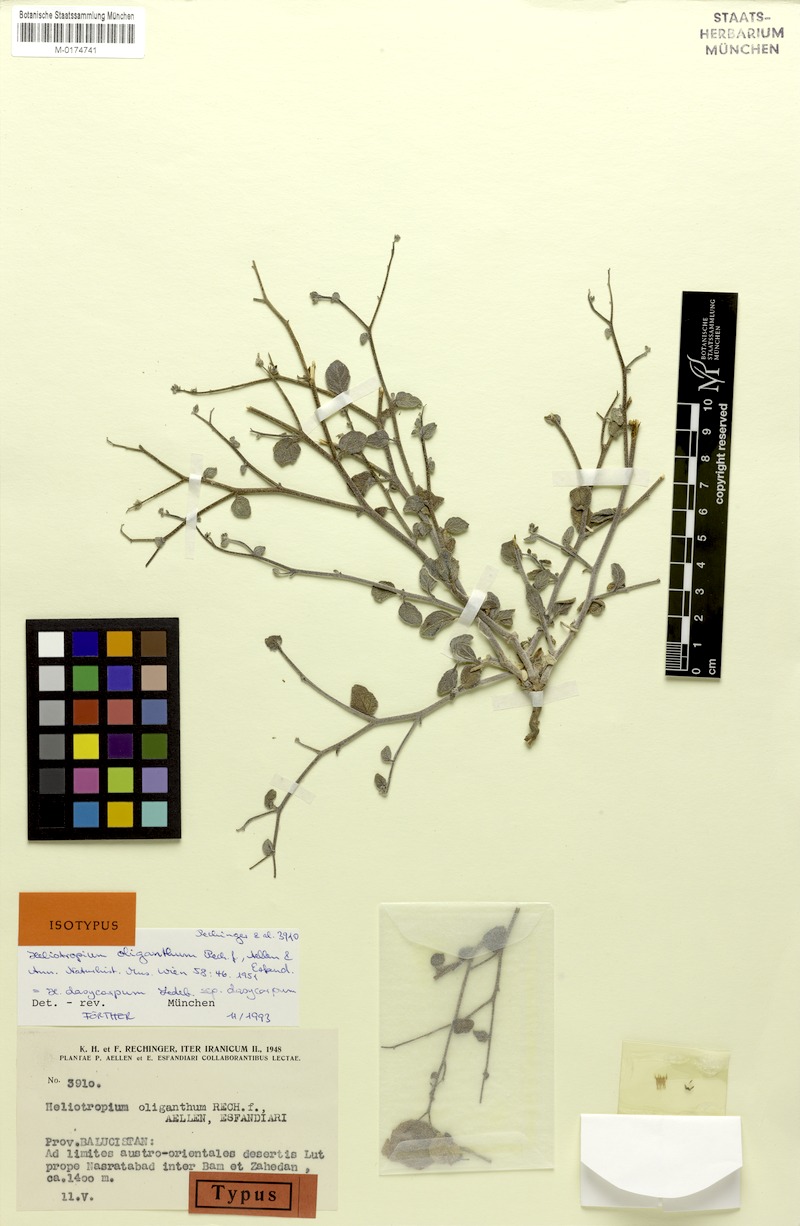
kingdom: Plantae
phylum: Tracheophyta
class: Magnoliopsida
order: Boraginales
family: Heliotropiaceae
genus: Heliotropium
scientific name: Heliotropium dasycarpum
